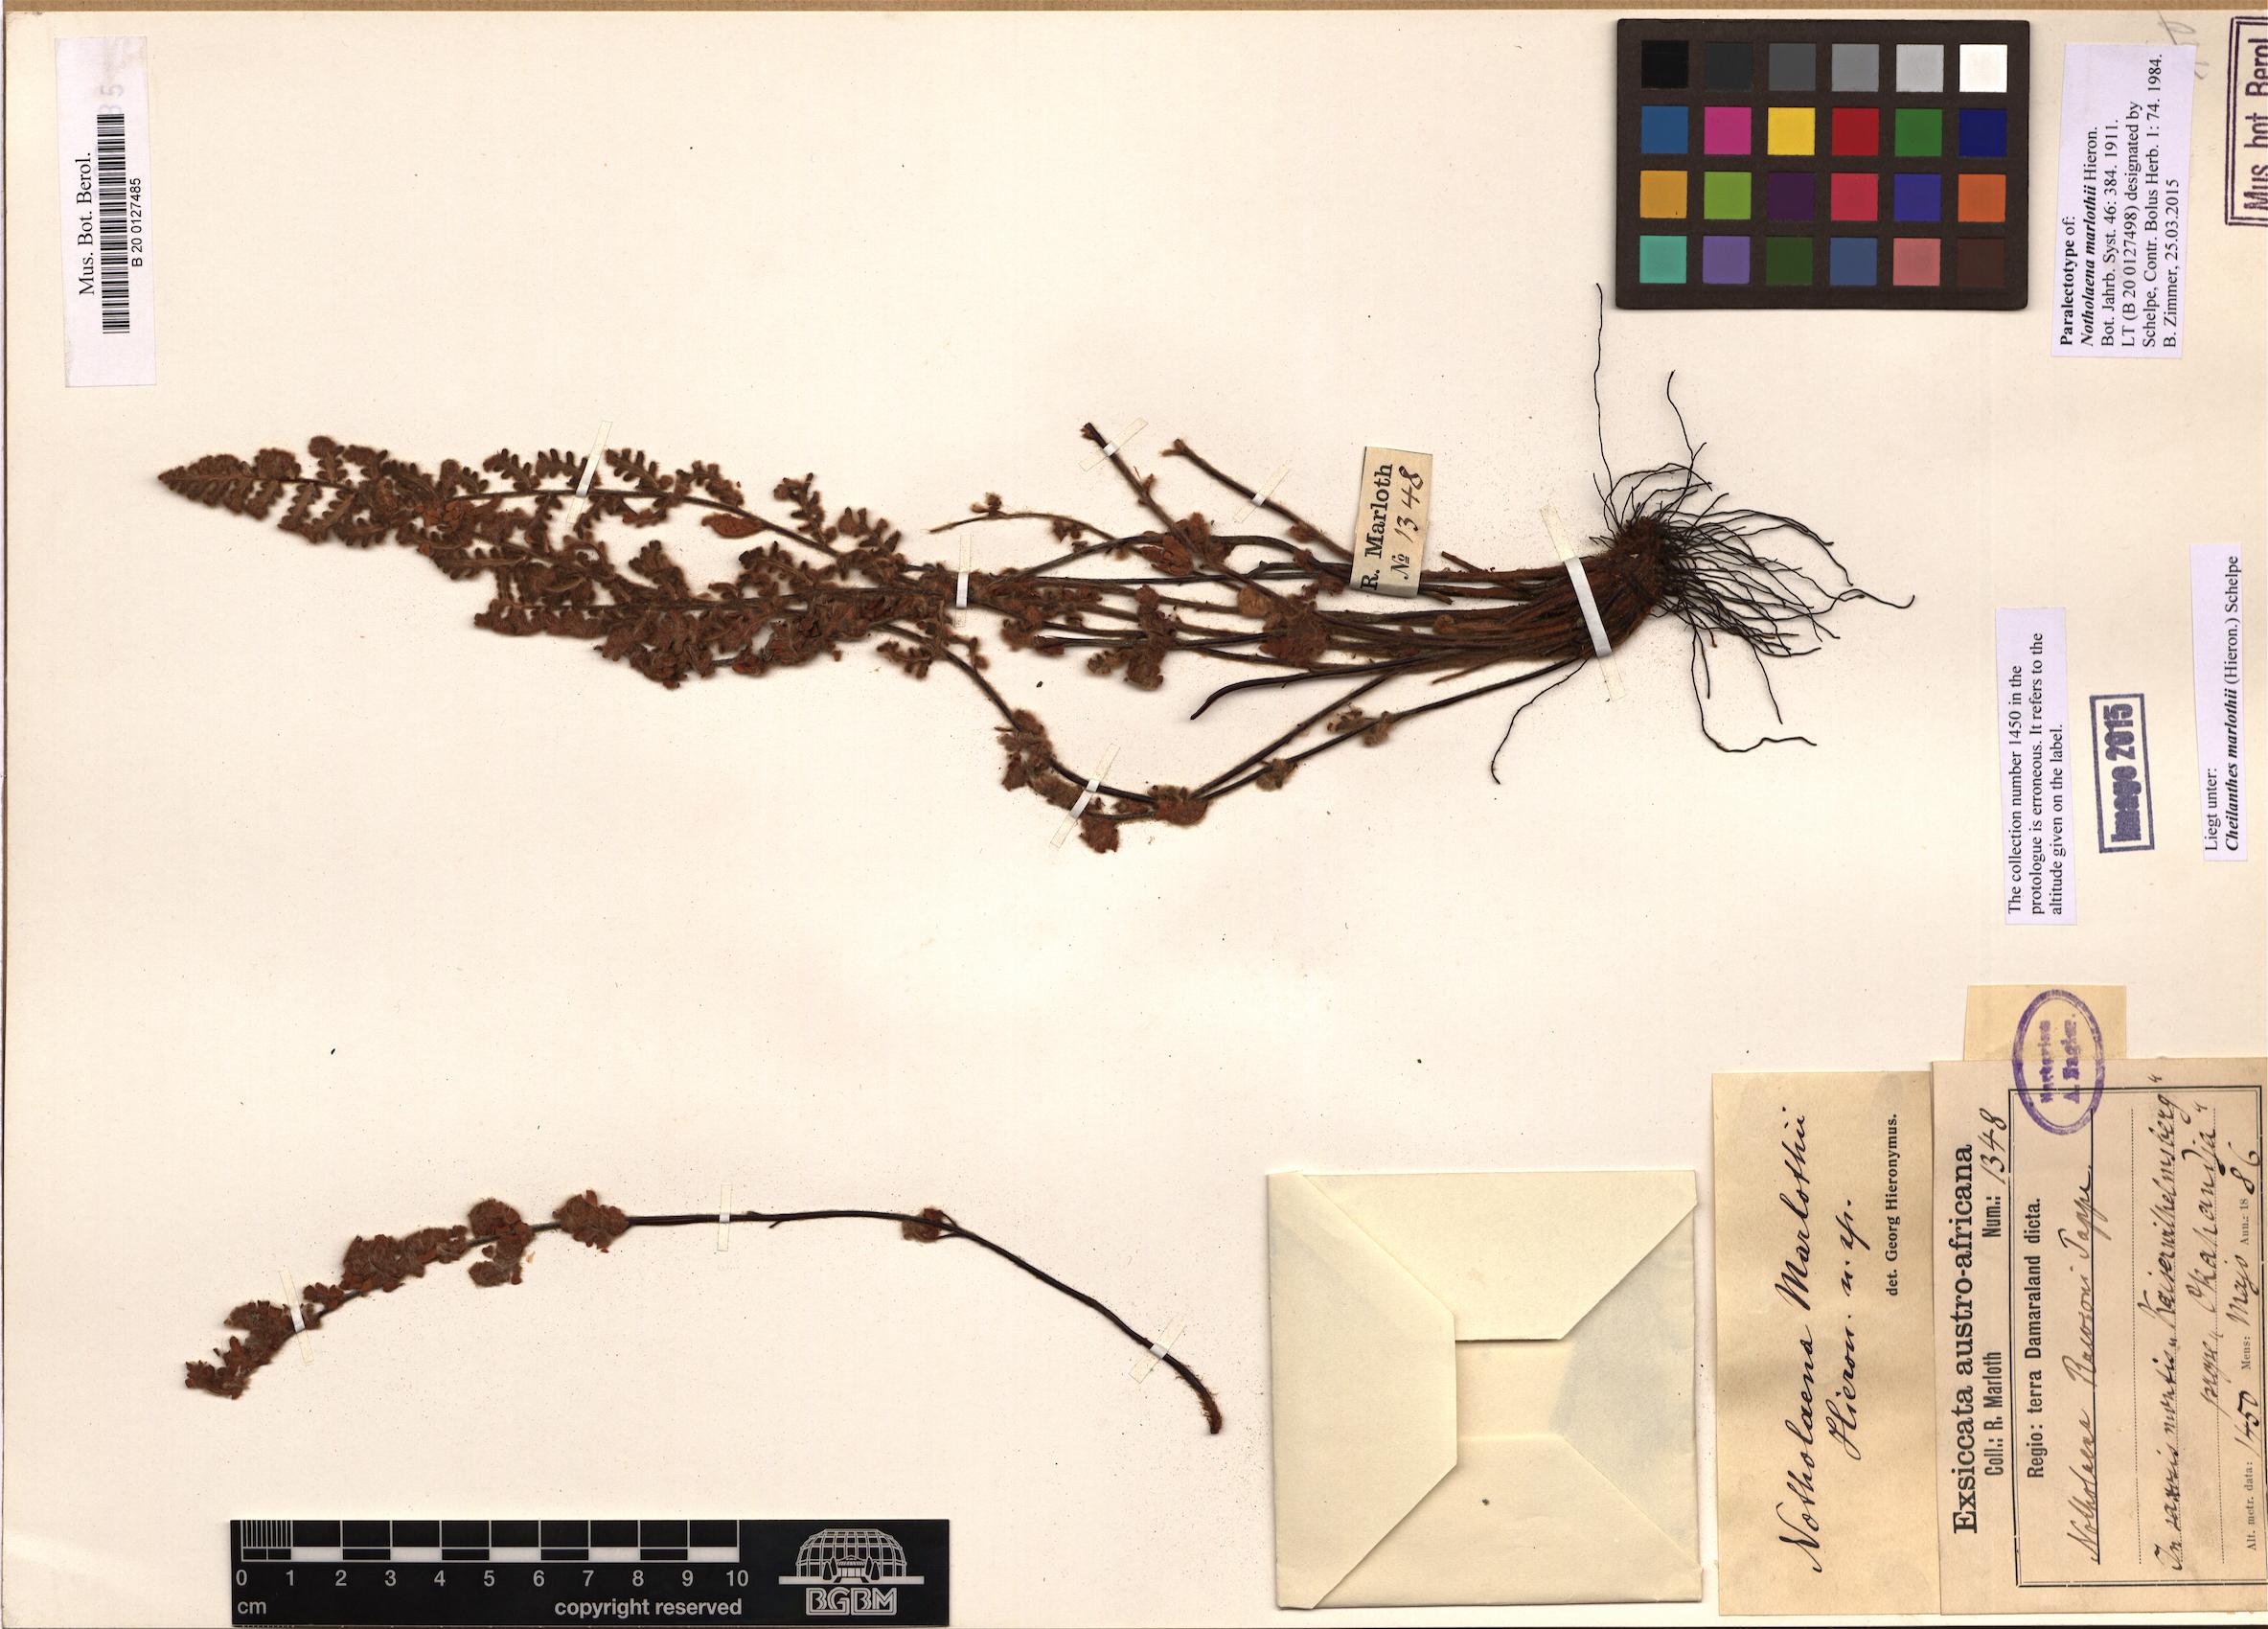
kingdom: Plantae
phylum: Tracheophyta
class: Polypodiopsida
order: Polypodiales
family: Pteridaceae
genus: Cheilanthes
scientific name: Cheilanthes marlothii
